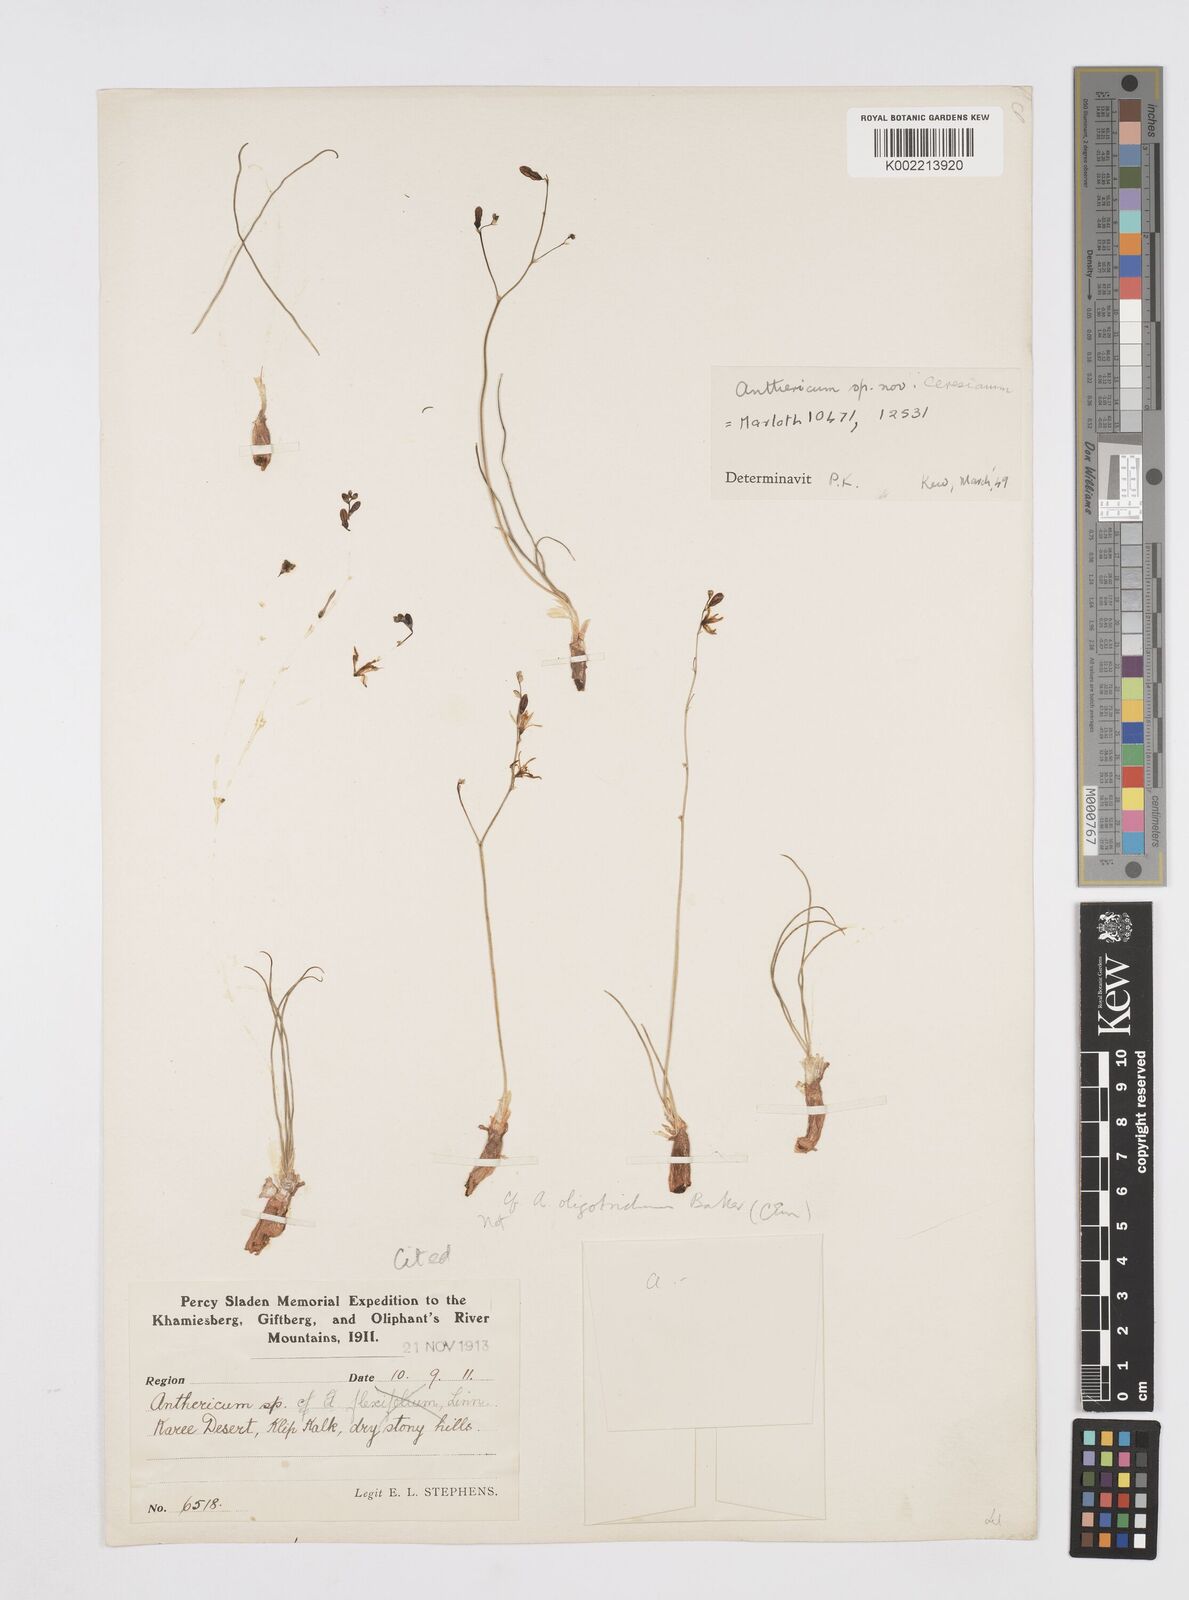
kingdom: Plantae
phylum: Tracheophyta
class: Liliopsida
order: Asparagales
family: Asphodelaceae
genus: Trachyandra
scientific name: Trachyandra dissecta
